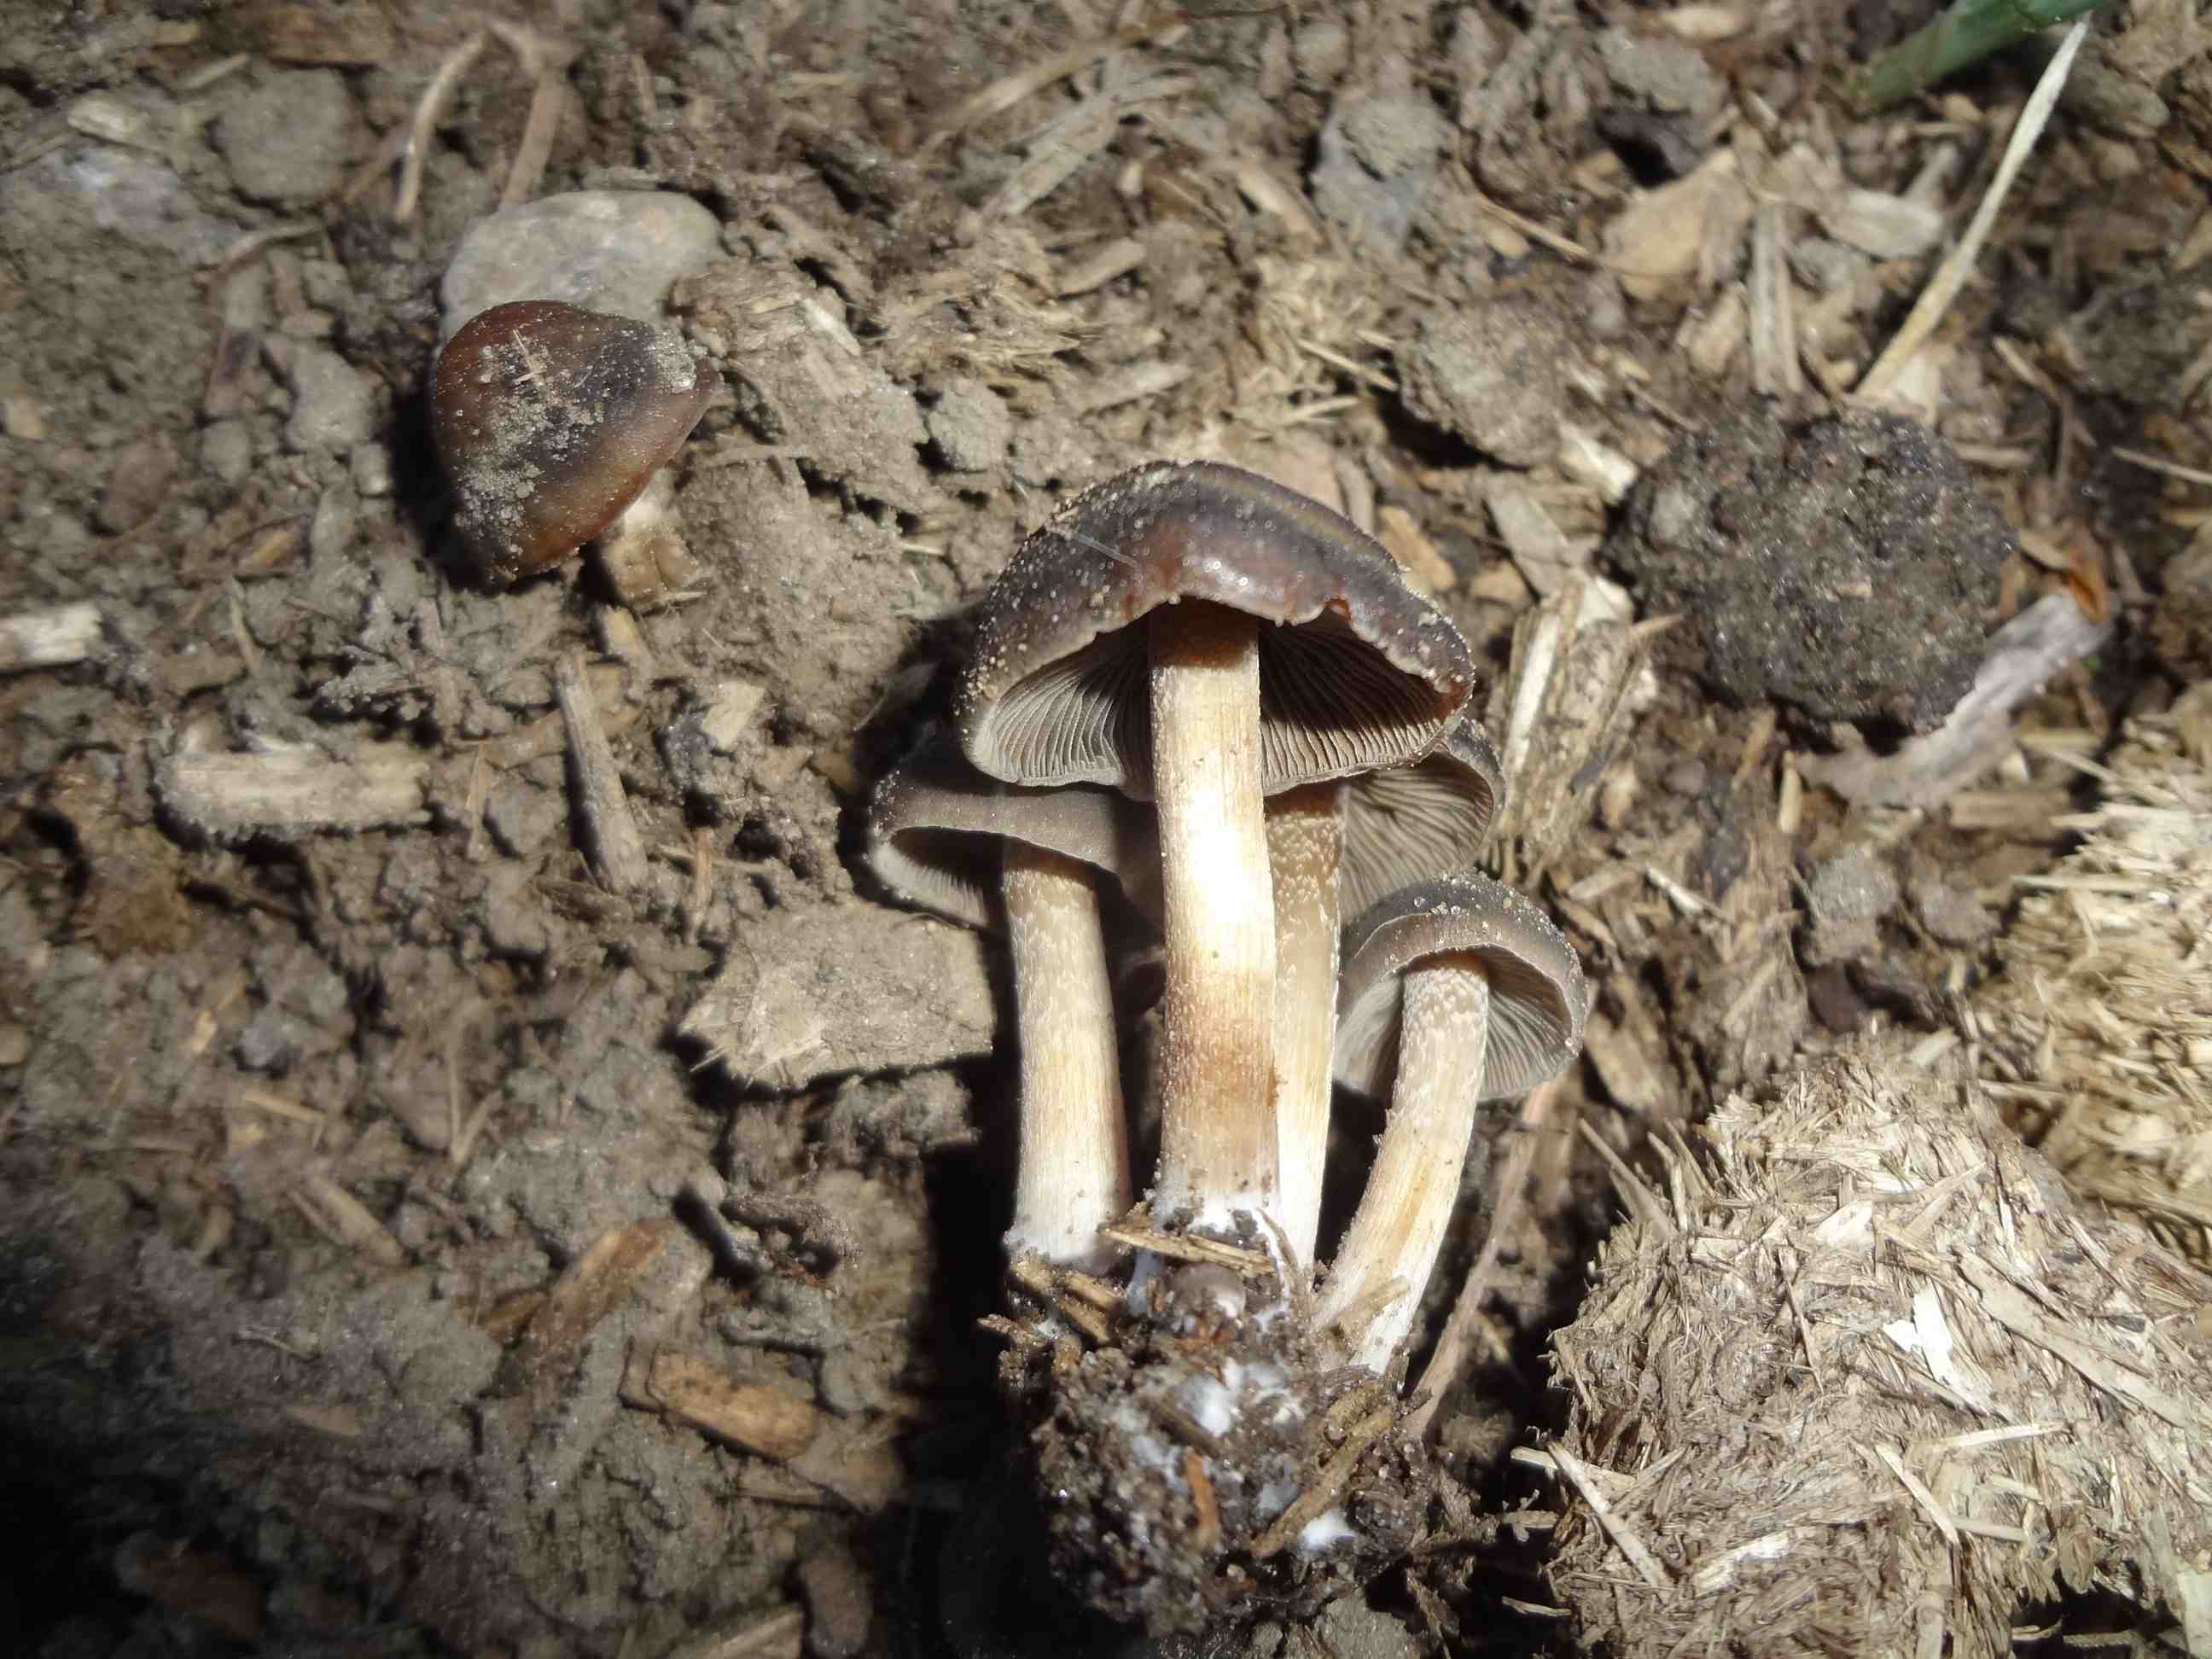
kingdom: Fungi
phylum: Basidiomycota
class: Agaricomycetes
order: Agaricales
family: Bolbitiaceae
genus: Panaeolus
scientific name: Panaeolus reticulatus
